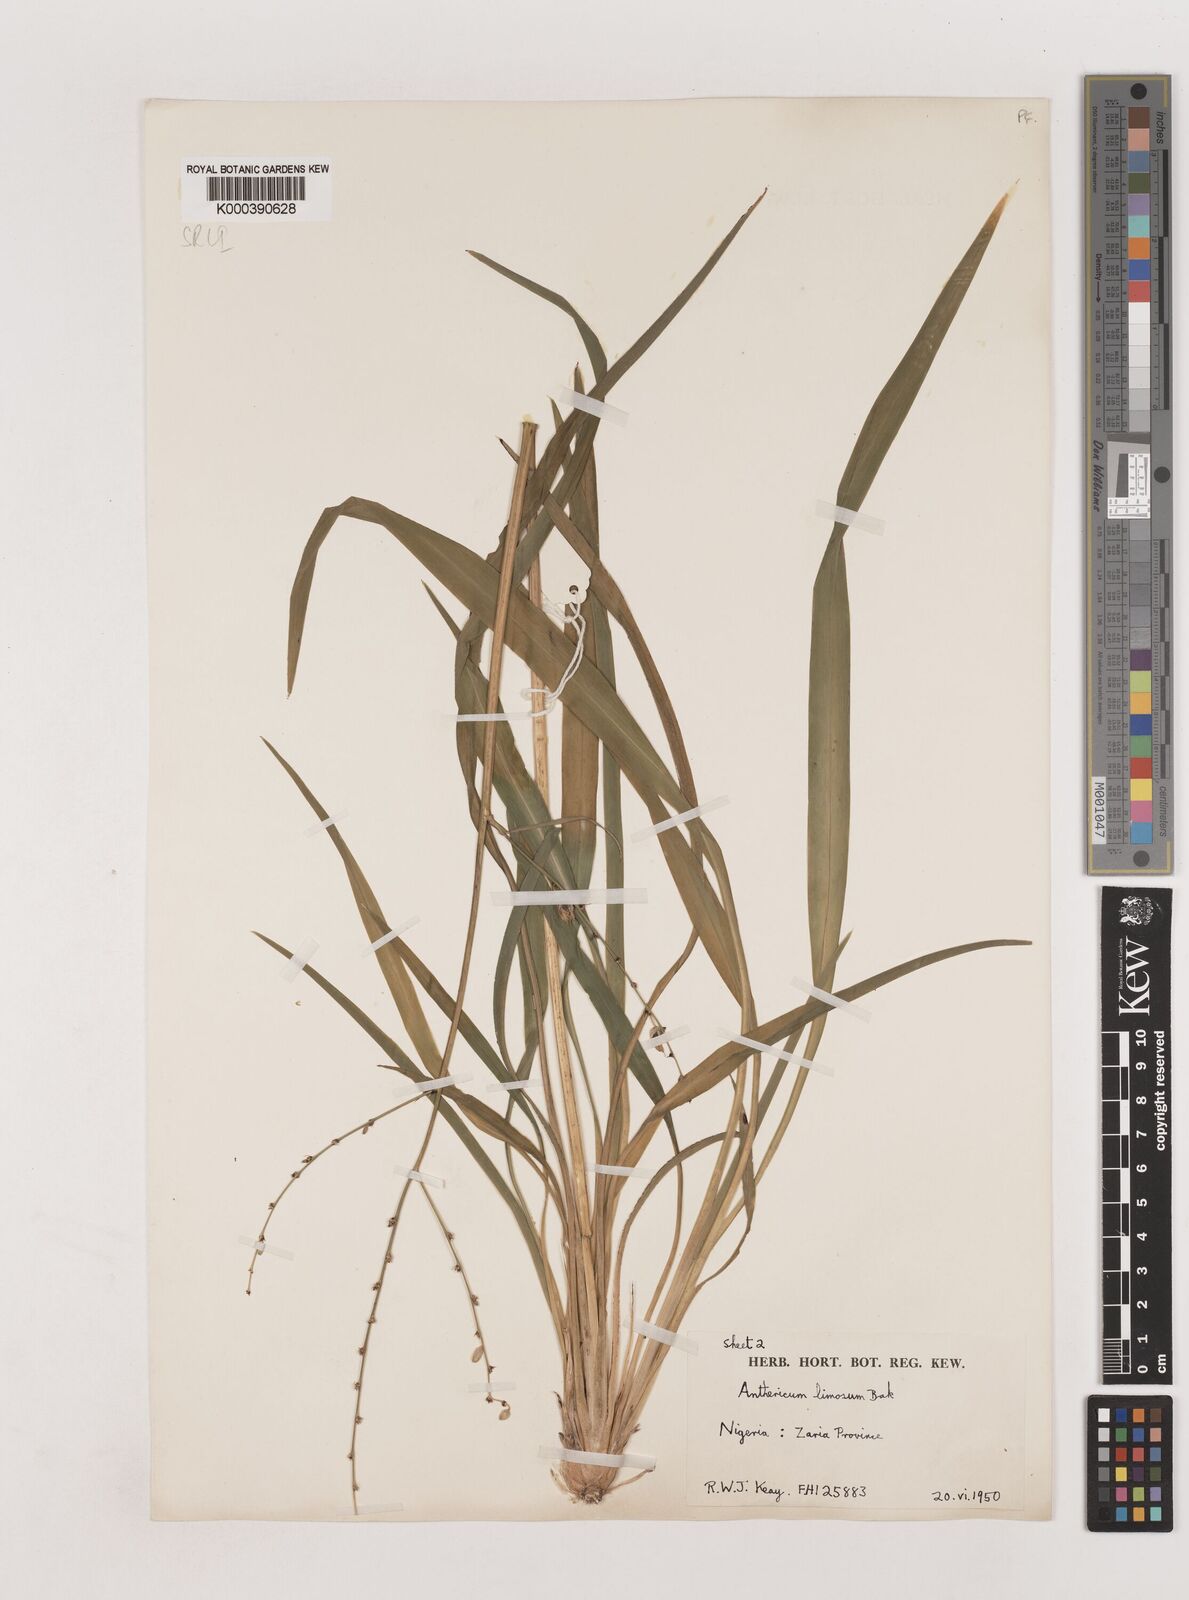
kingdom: Plantae
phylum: Tracheophyta
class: Liliopsida
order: Asparagales
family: Asparagaceae
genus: Chlorophytum
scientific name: Chlorophytum limosum
